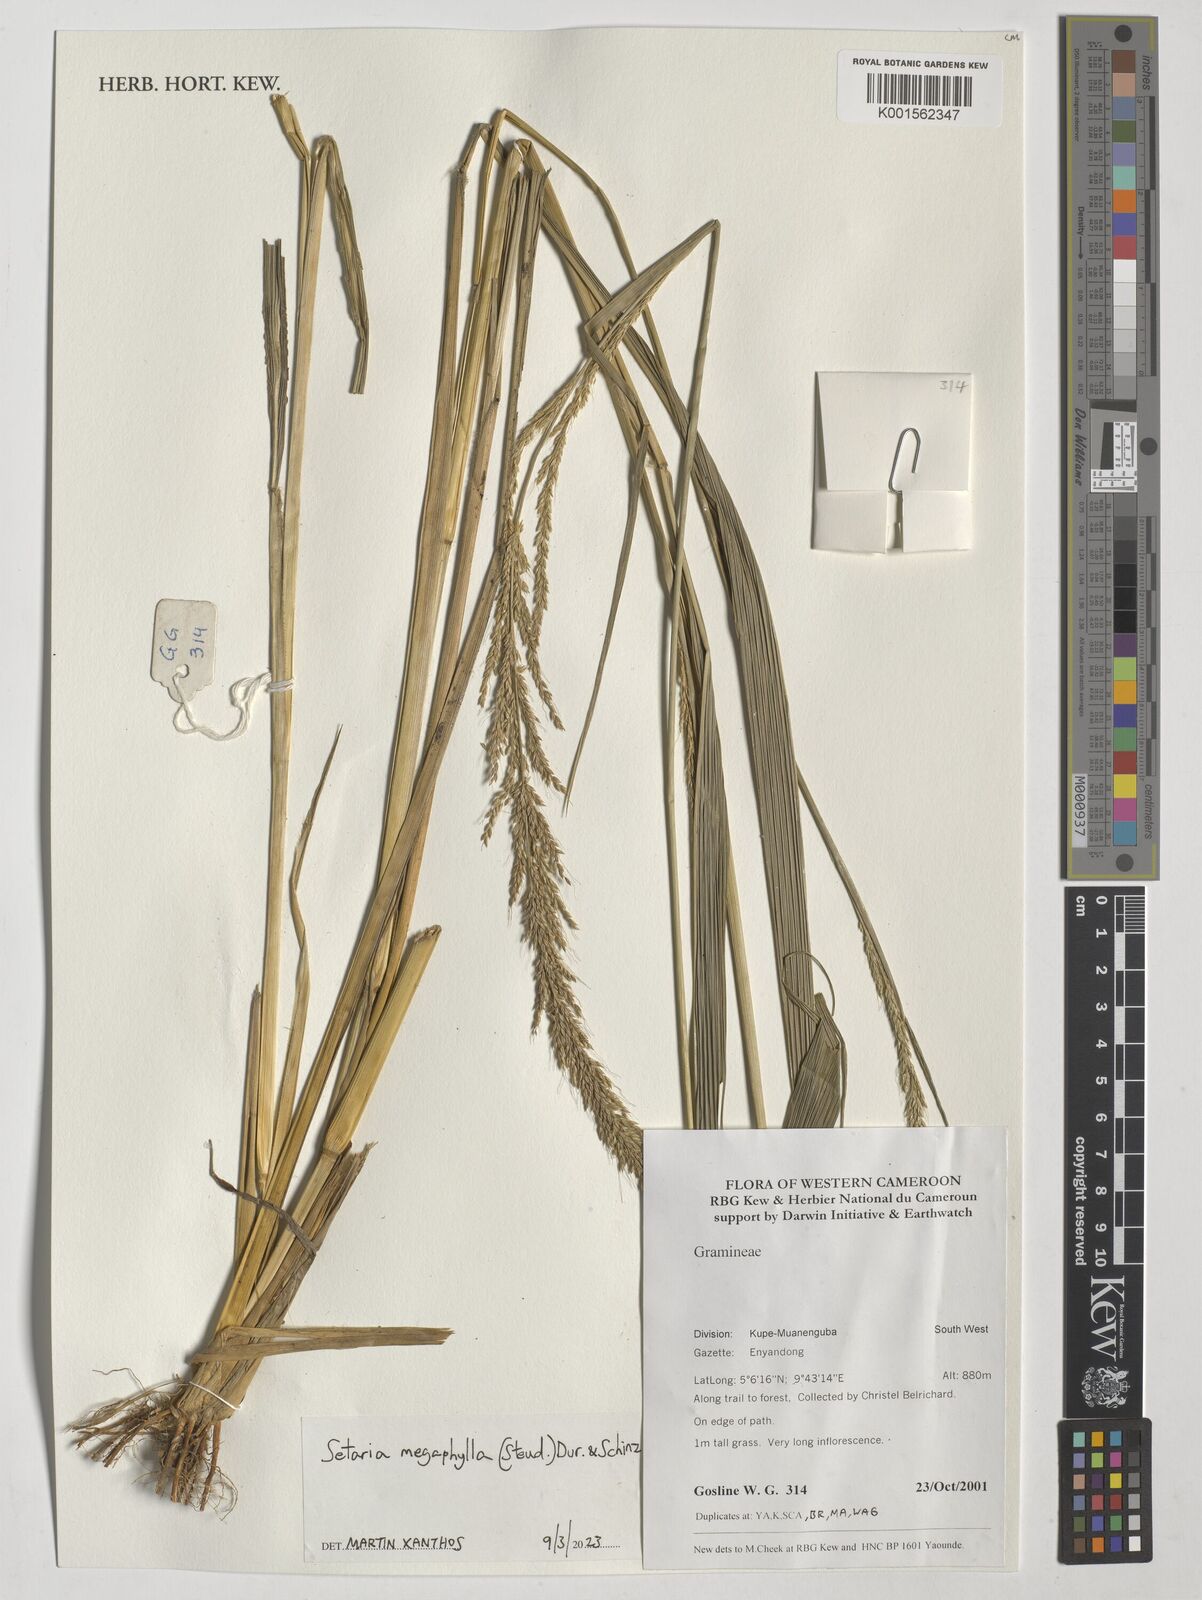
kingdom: Plantae
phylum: Tracheophyta
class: Liliopsida
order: Poales
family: Poaceae
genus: Setaria
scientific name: Setaria megaphylla
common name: Bigleaf bristlegrass
